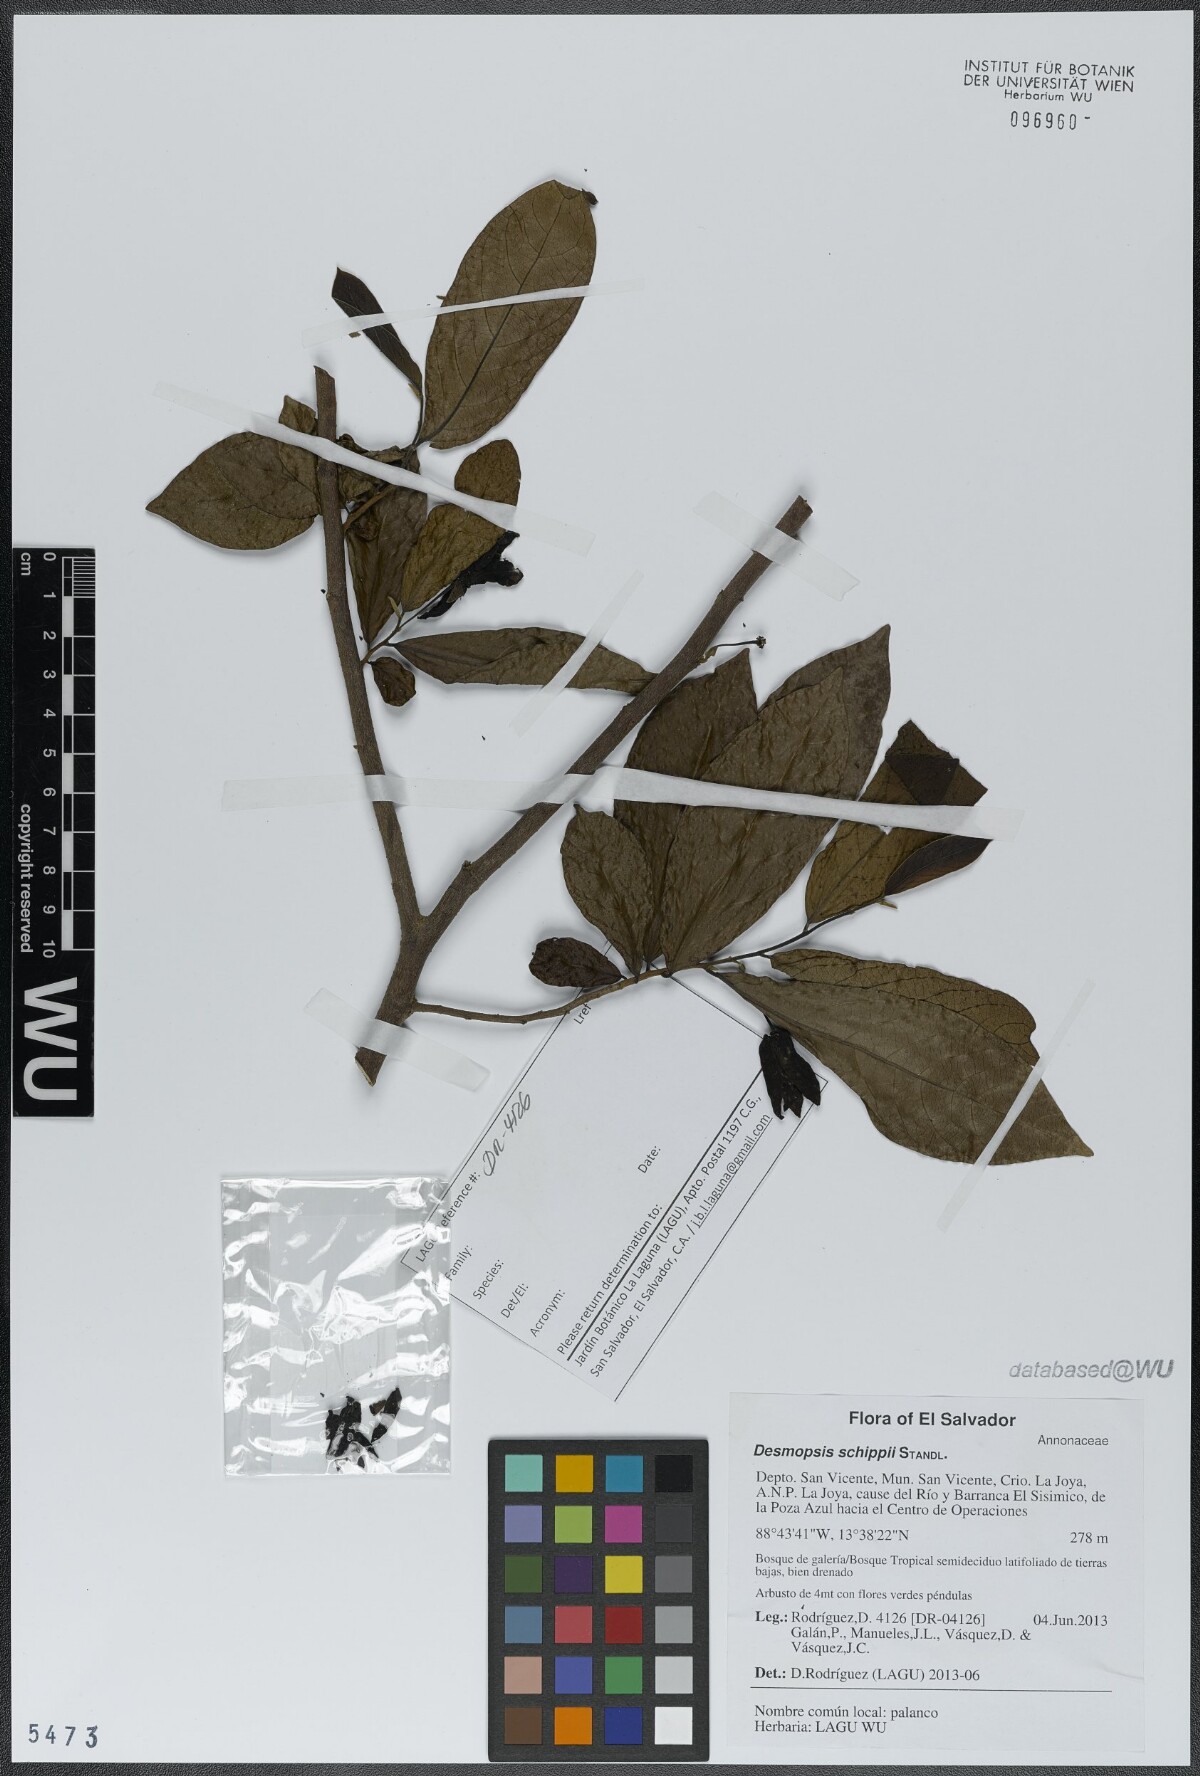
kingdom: Plantae
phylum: Tracheophyta
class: Magnoliopsida
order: Magnoliales
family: Annonaceae
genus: Desmopsis
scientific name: Desmopsis schippii
